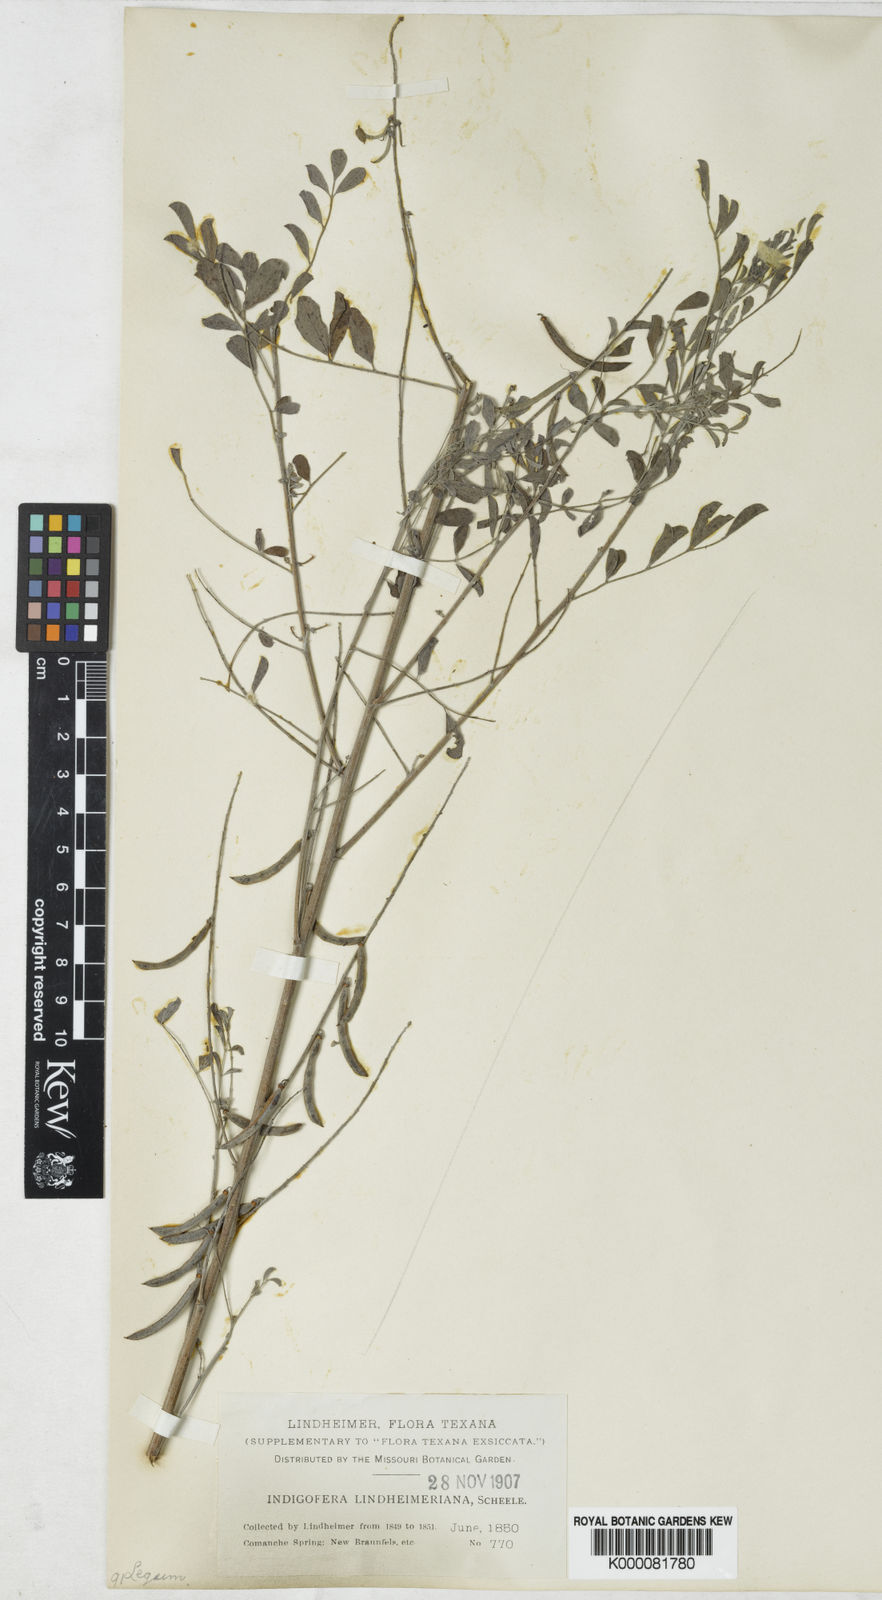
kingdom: Plantae
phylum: Tracheophyta
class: Magnoliopsida
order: Fabales
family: Fabaceae
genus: Indigofera
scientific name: Indigofera lindheimeriana
